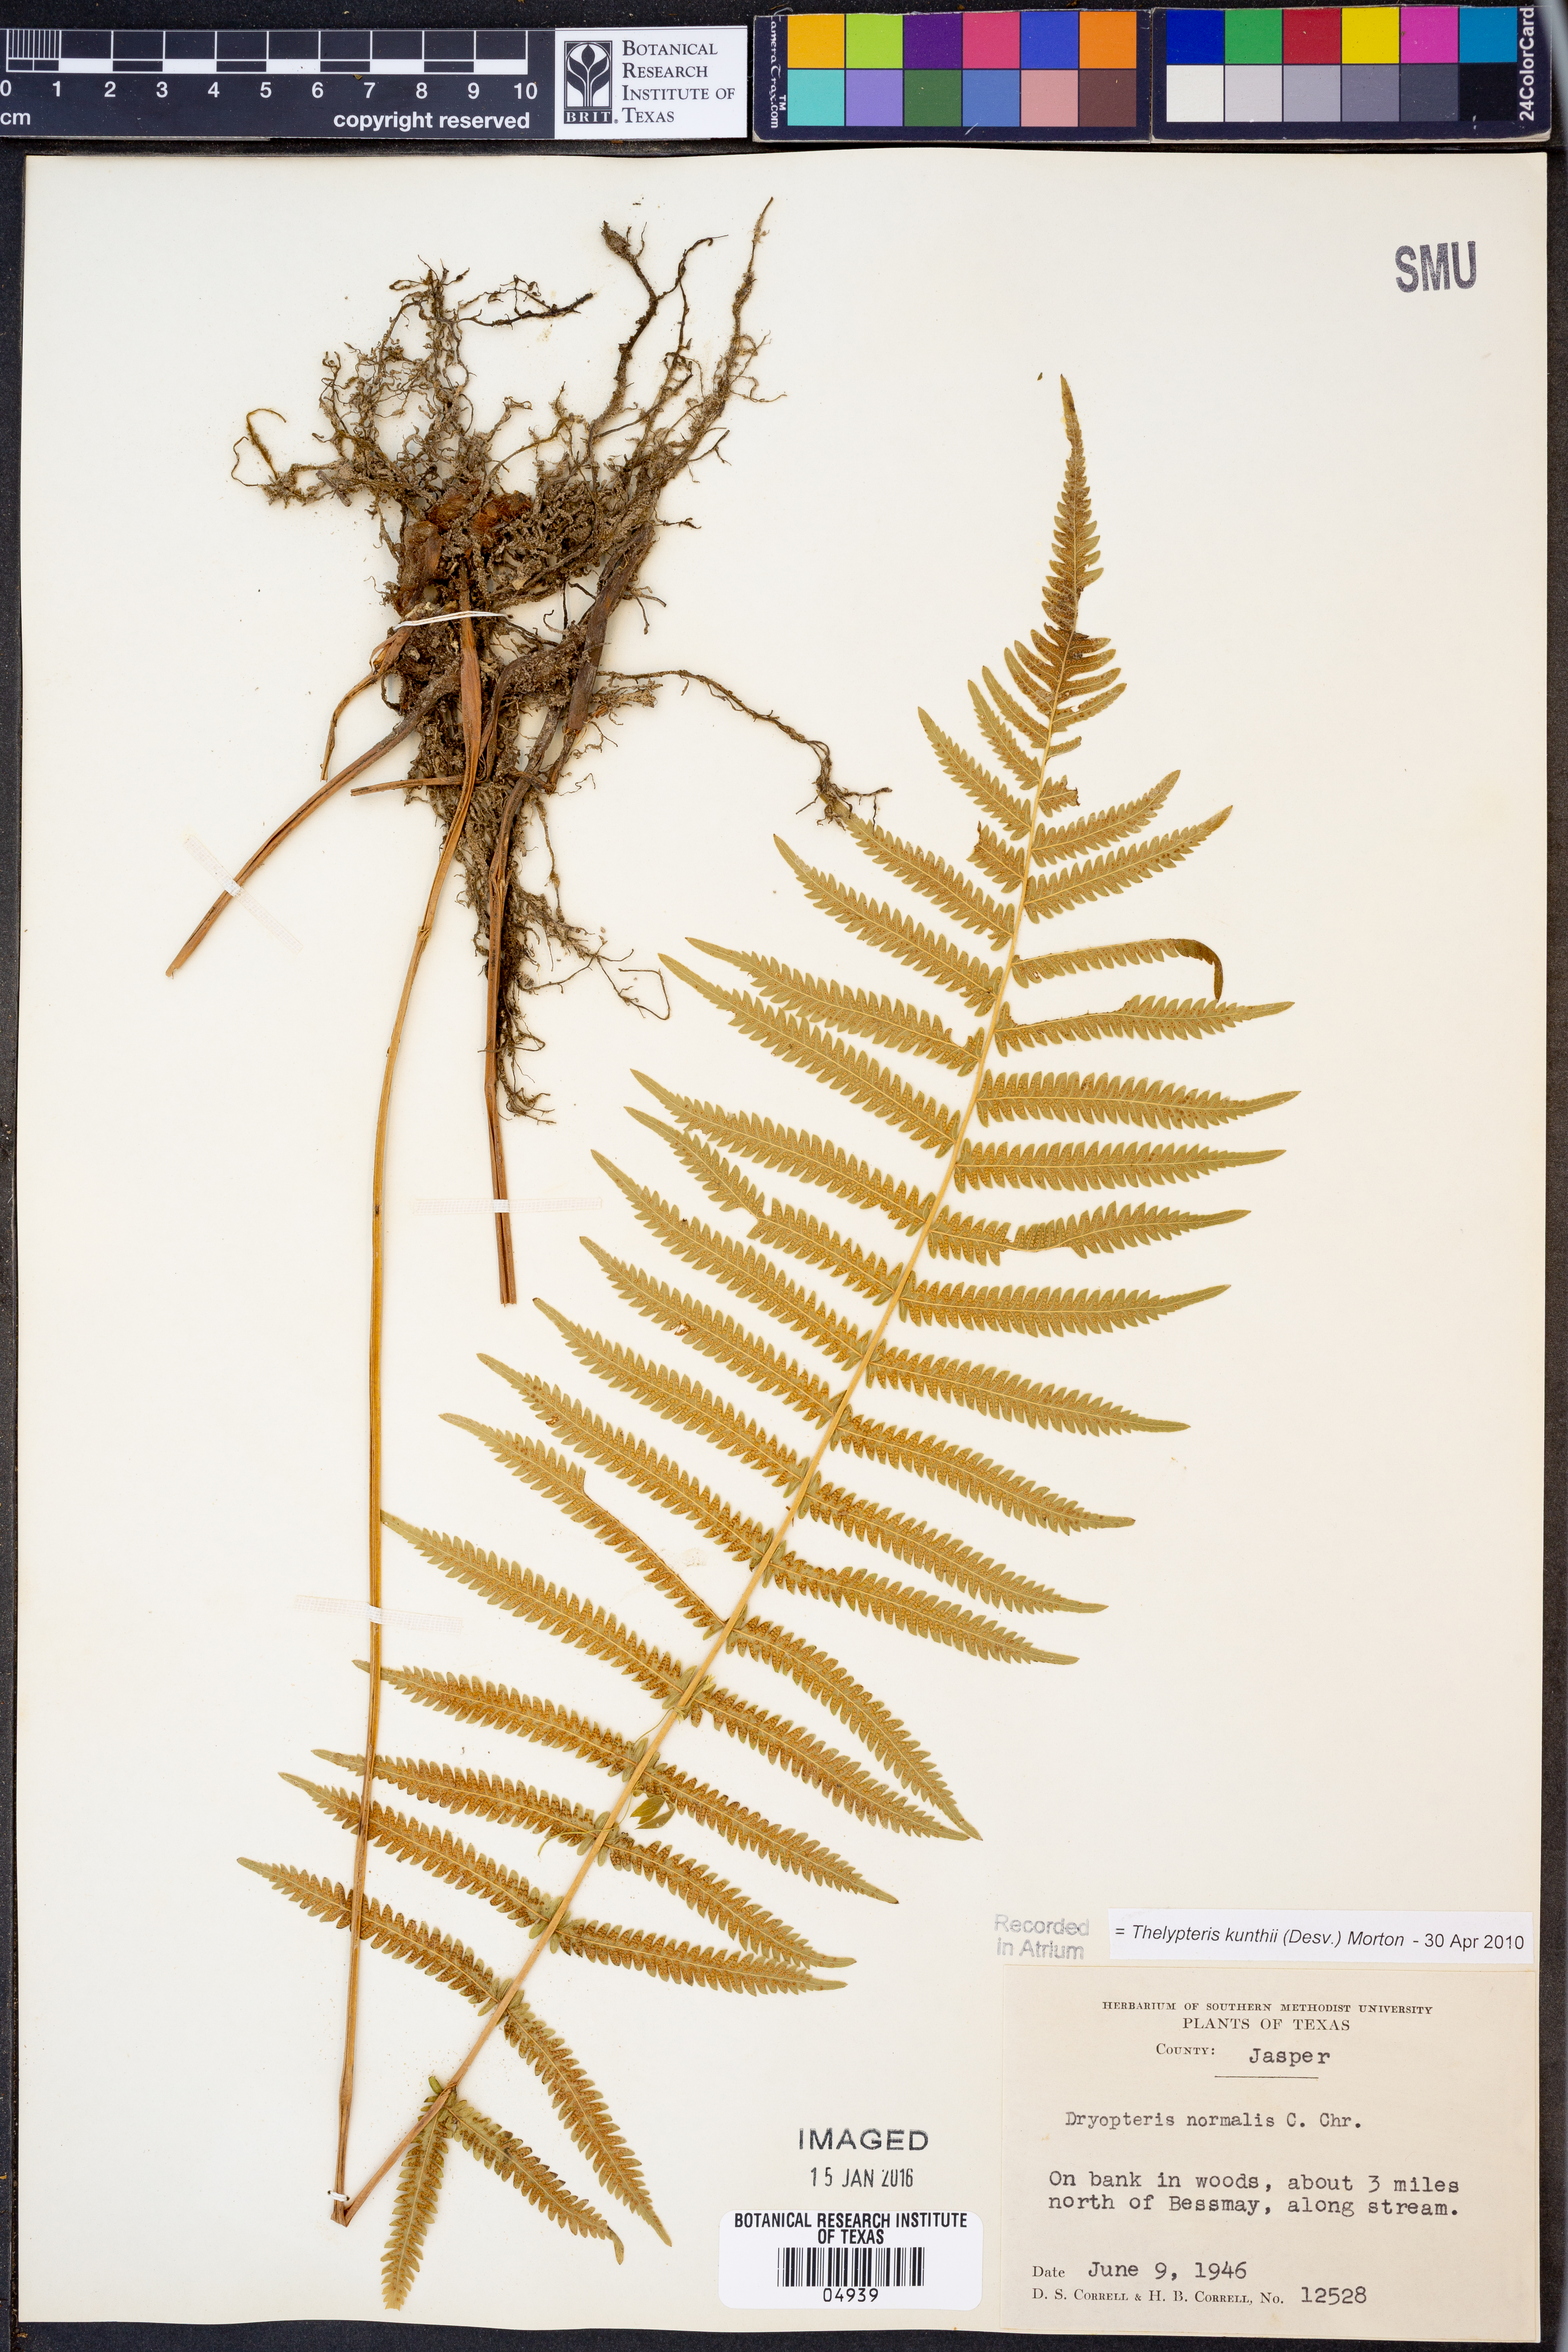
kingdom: Plantae
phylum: Tracheophyta
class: Polypodiopsida
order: Polypodiales
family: Thelypteridaceae
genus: Pelazoneuron
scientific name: Pelazoneuron kunthii
